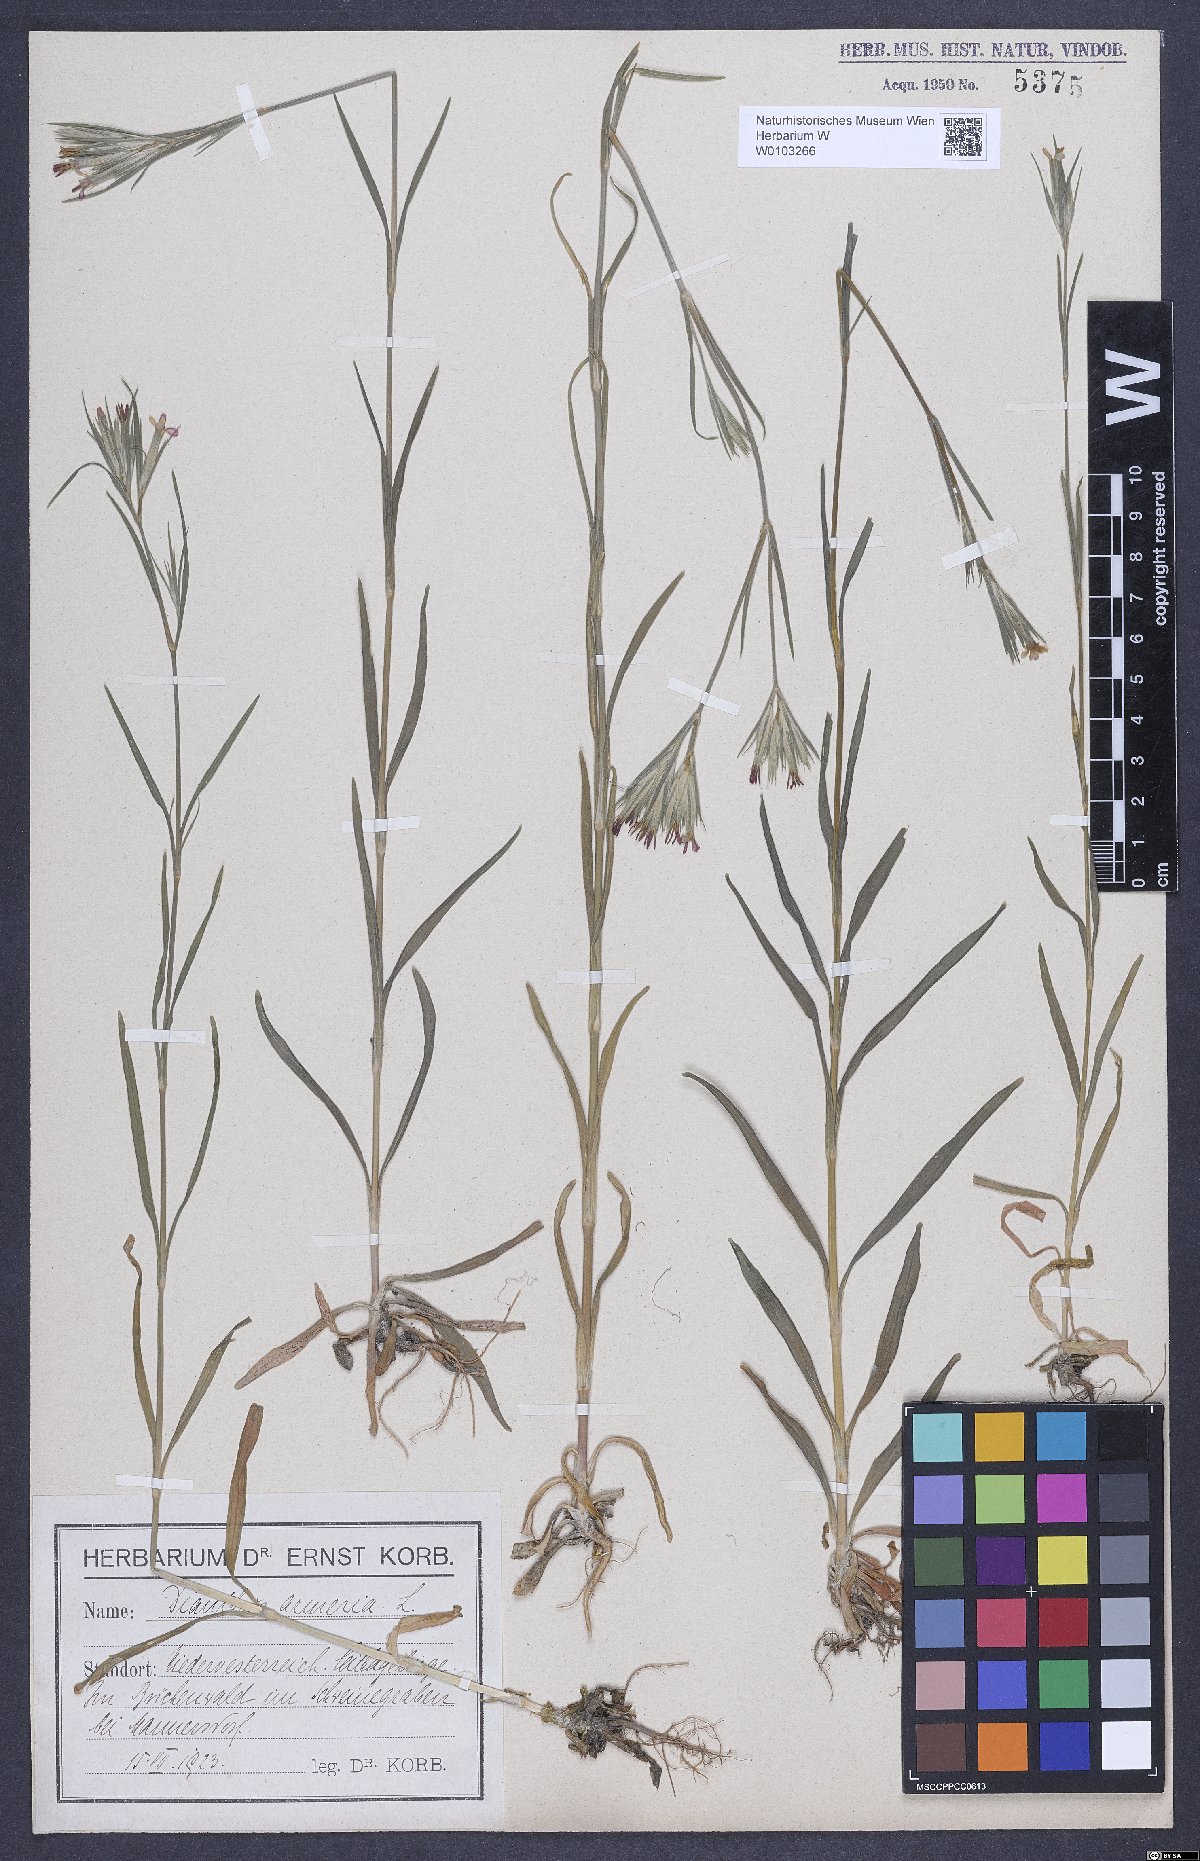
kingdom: Plantae
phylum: Tracheophyta
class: Magnoliopsida
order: Caryophyllales
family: Caryophyllaceae
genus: Dianthus
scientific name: Dianthus armeria
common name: Deptford pink
